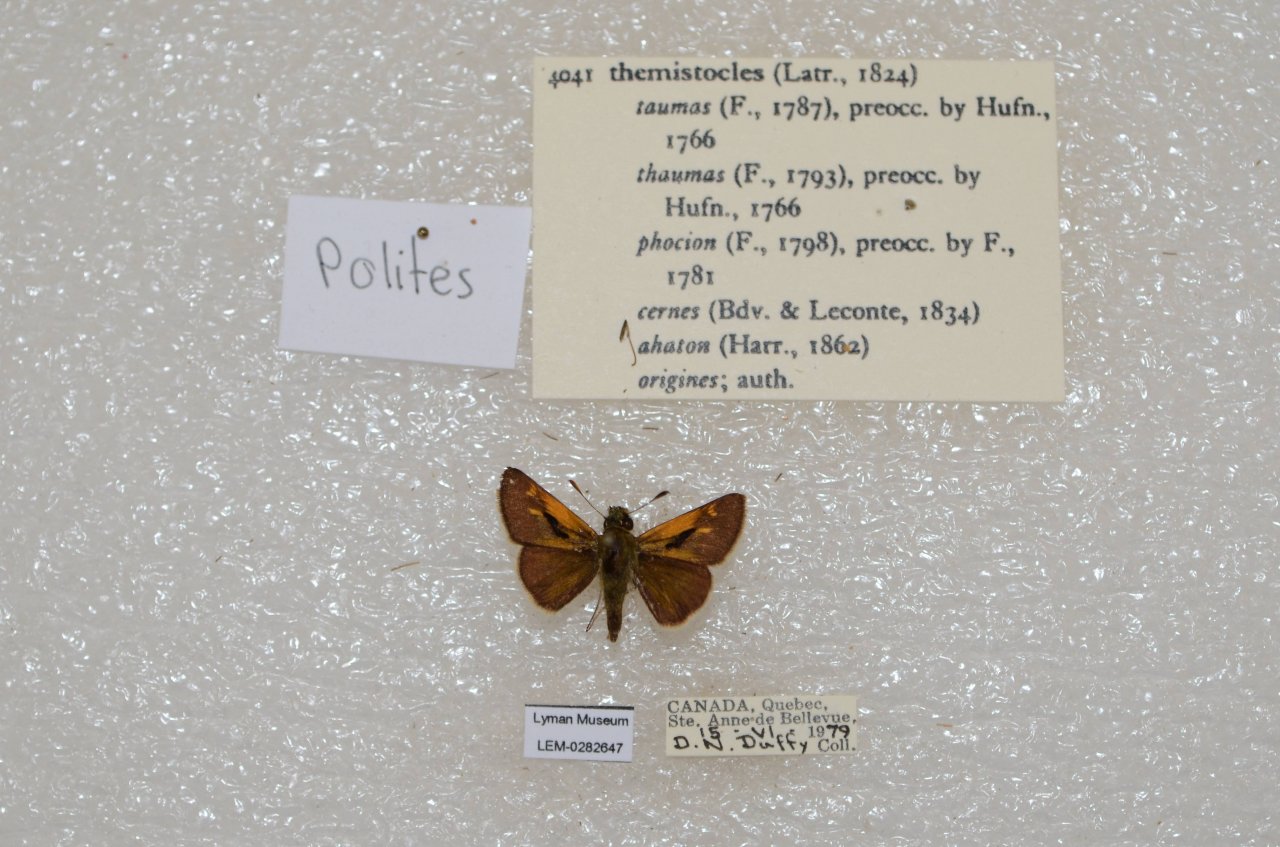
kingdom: Animalia
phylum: Arthropoda
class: Insecta
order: Lepidoptera
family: Hesperiidae
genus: Polites
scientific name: Polites themistocles
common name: Tawny-edged Skipper
